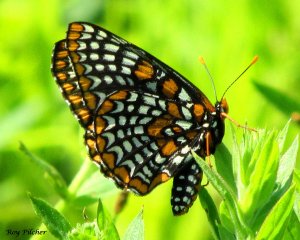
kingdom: Animalia
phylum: Arthropoda
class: Insecta
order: Lepidoptera
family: Nymphalidae
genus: Euphydryas
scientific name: Euphydryas phaeton
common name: Baltimore Checkerspot
